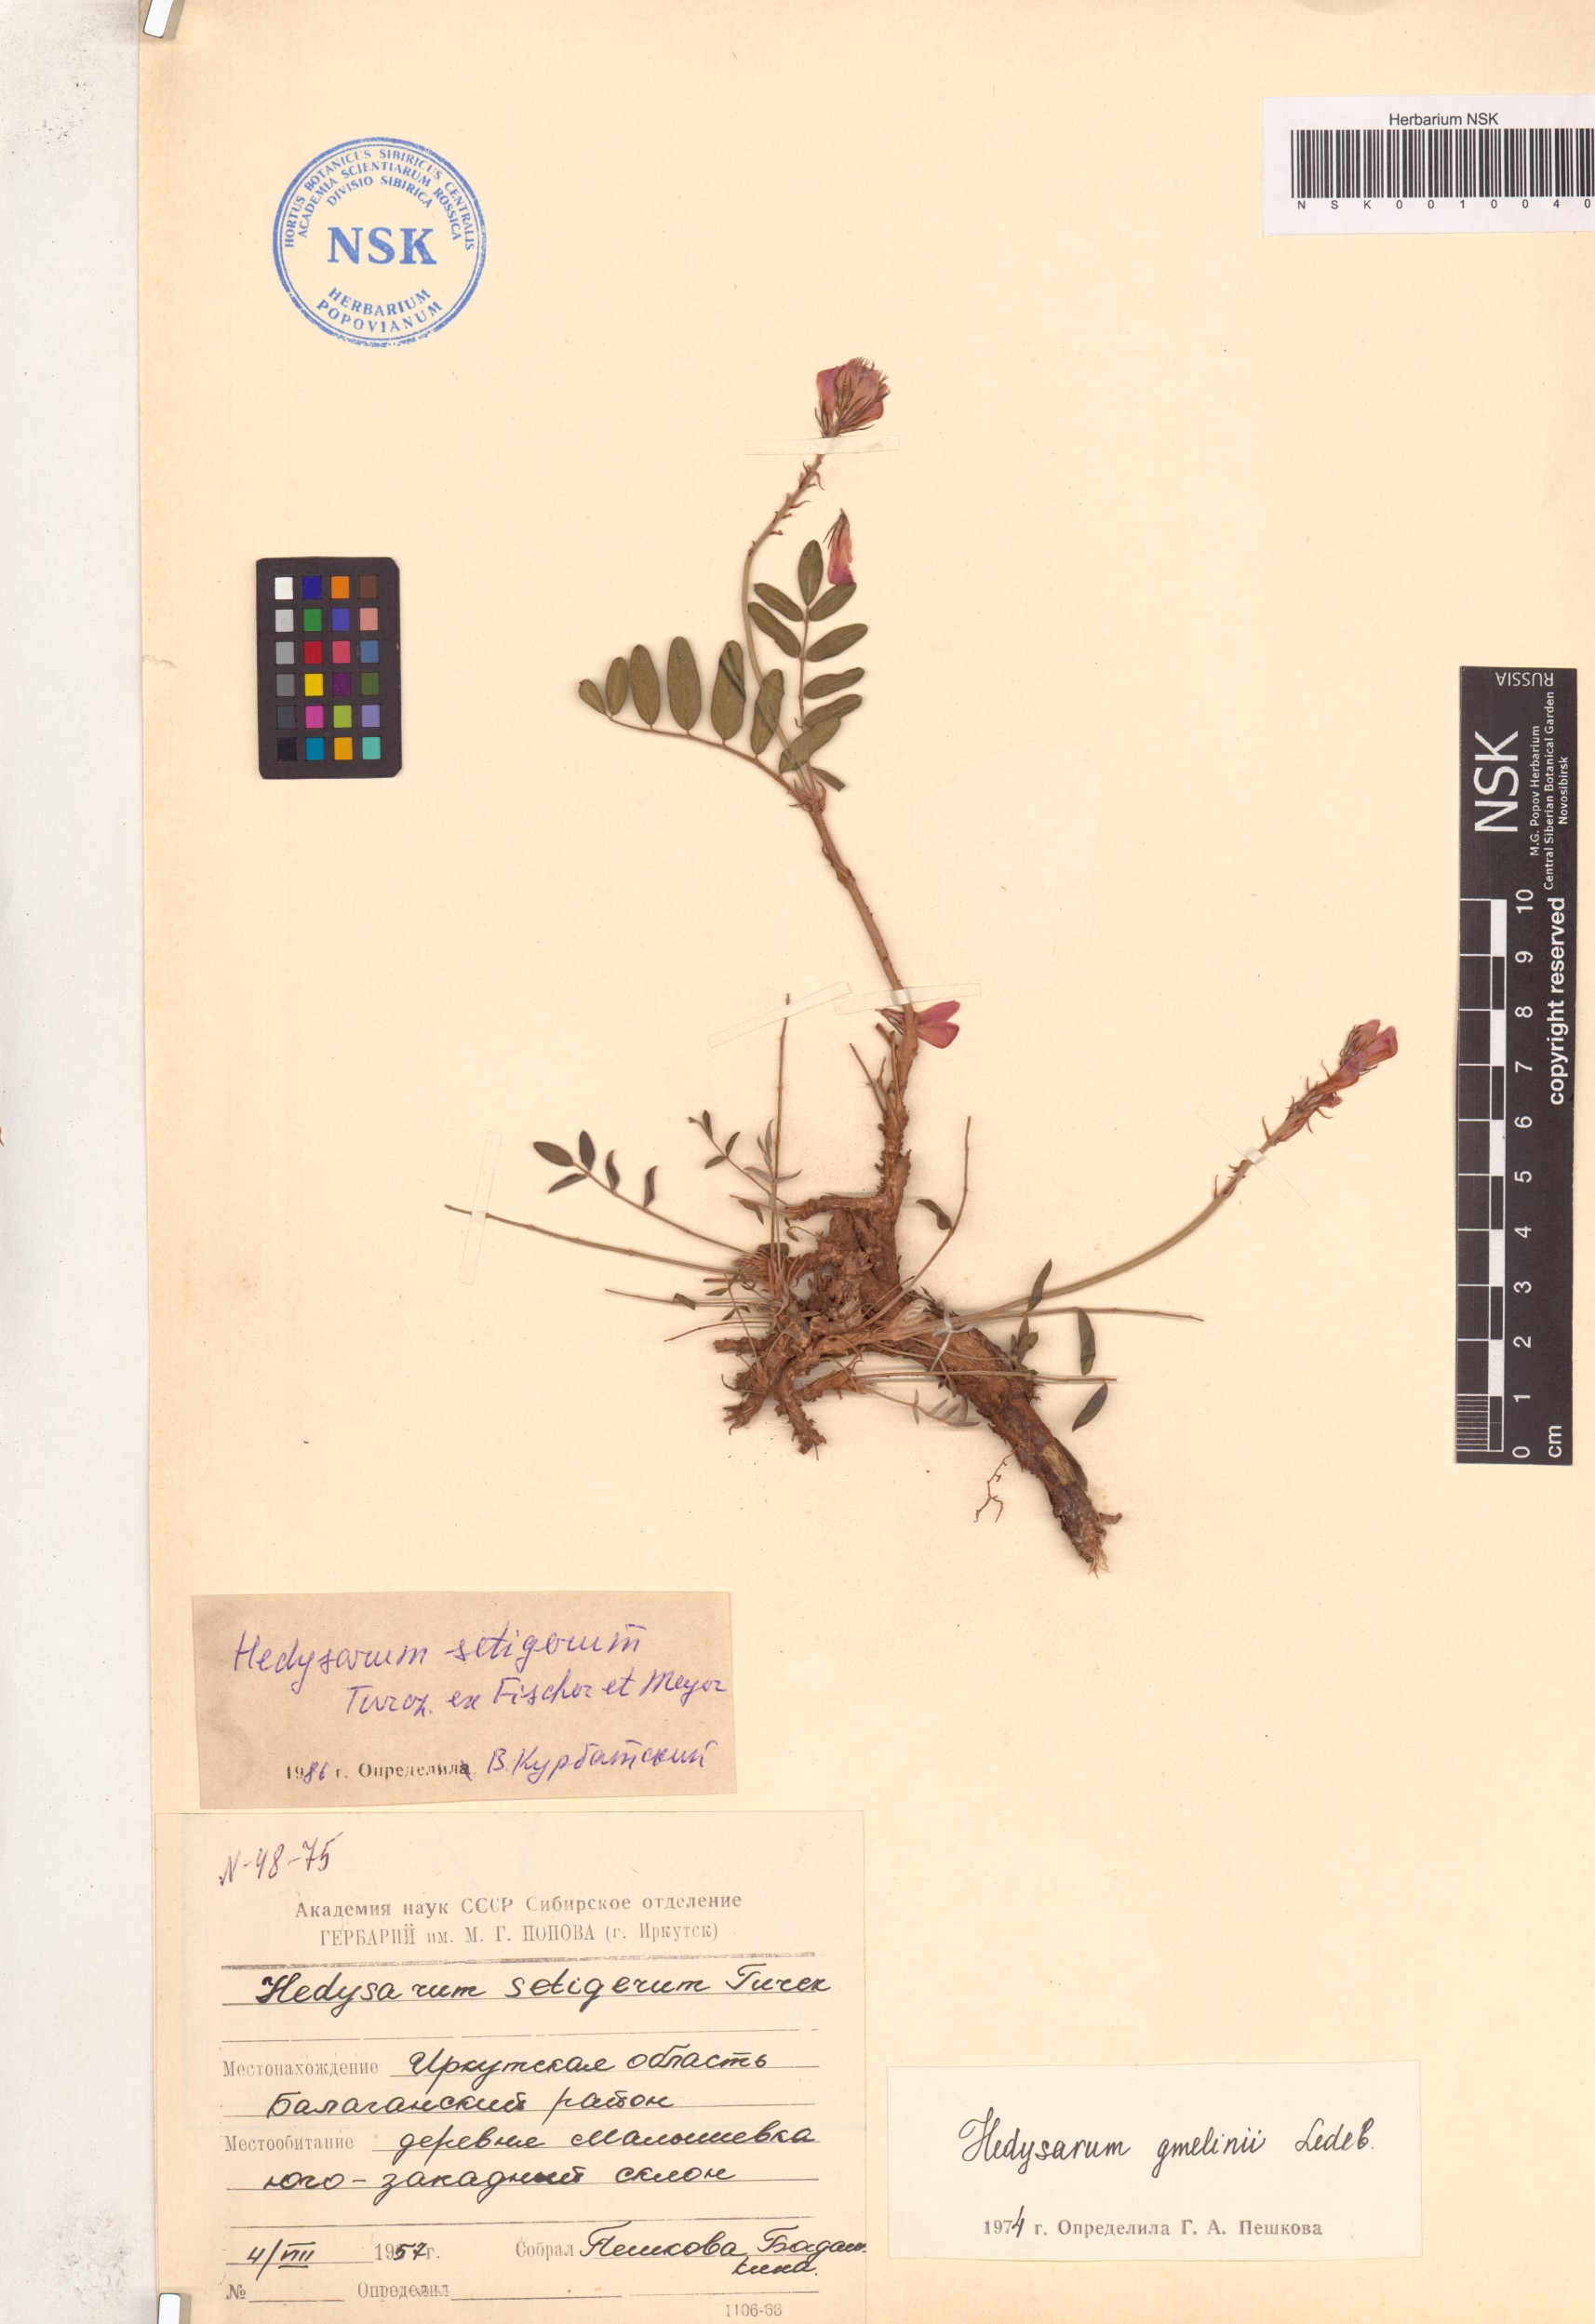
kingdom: Plantae
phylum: Tracheophyta
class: Magnoliopsida
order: Fabales
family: Fabaceae
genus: Hedysarum
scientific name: Hedysarum setigerum
